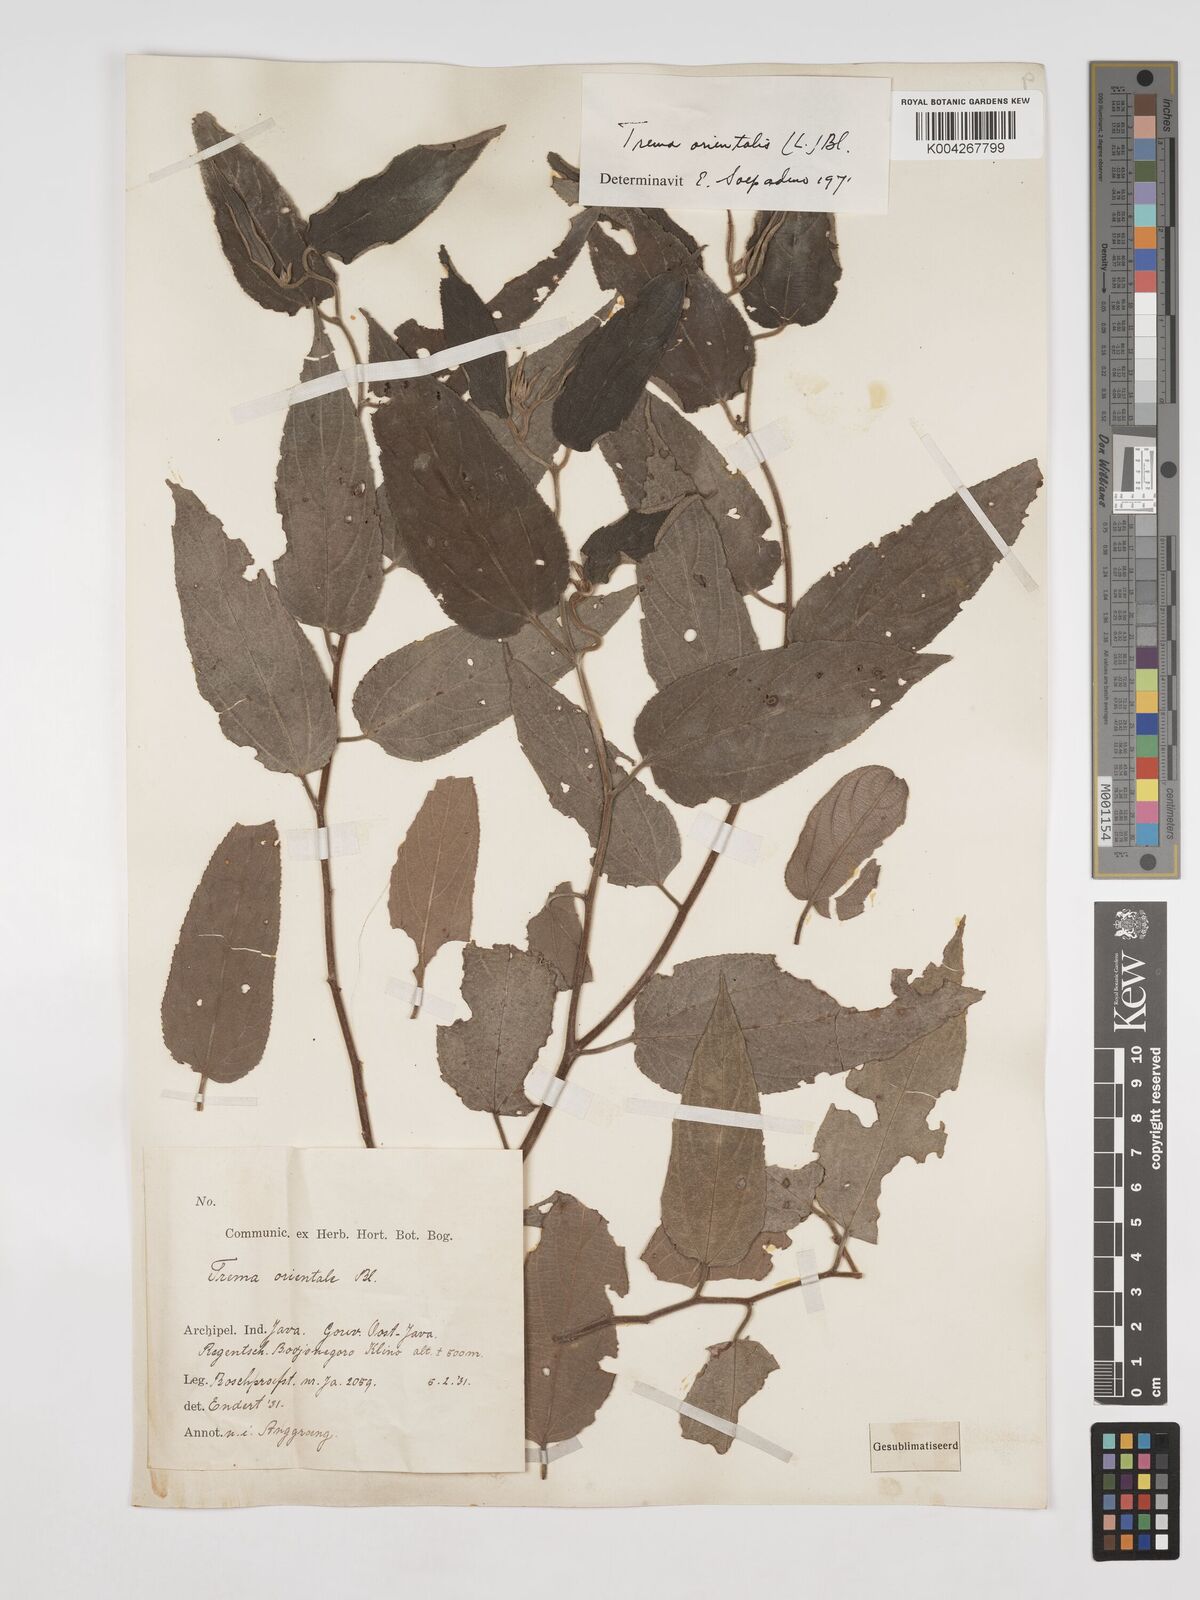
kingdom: Plantae
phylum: Tracheophyta
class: Magnoliopsida
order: Rosales
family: Cannabaceae
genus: Trema
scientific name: Trema orientale
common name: Indian charcoal tree
